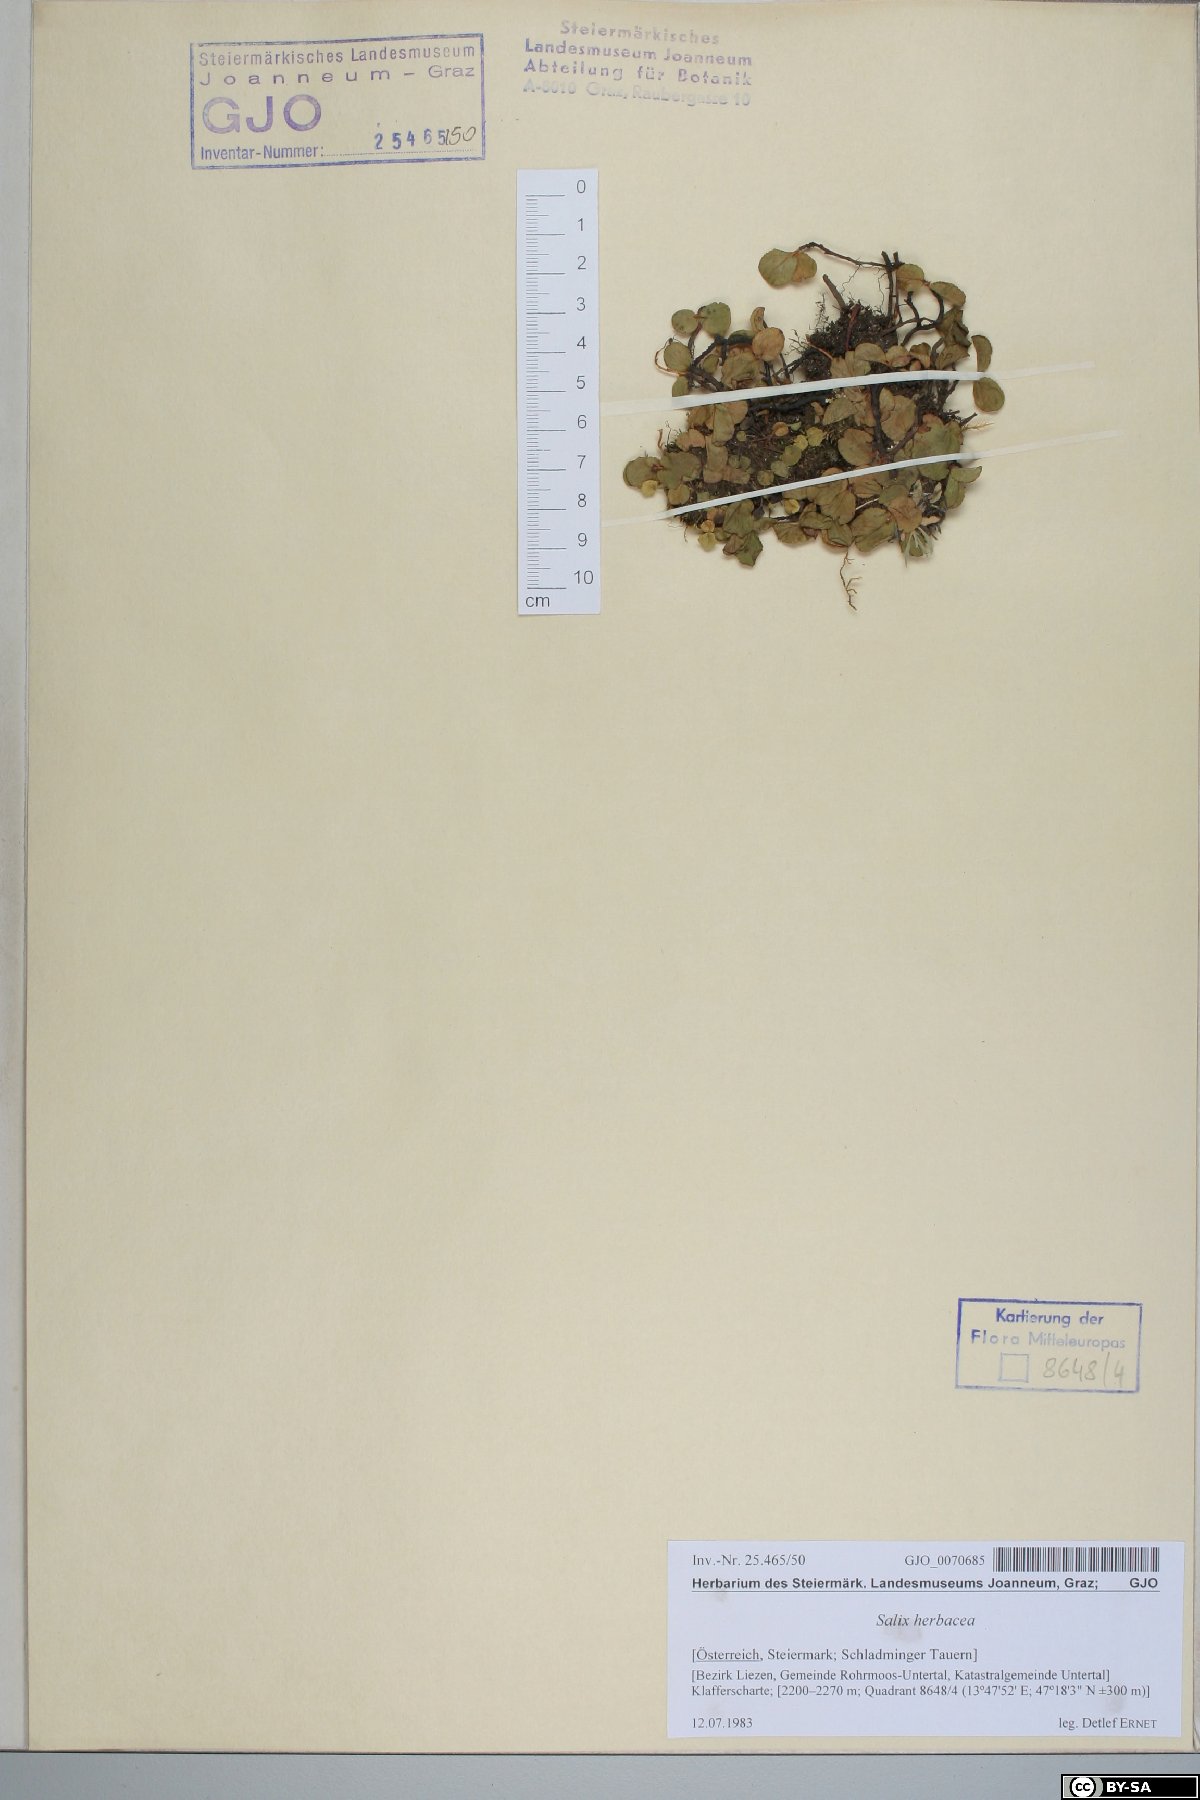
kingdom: Plantae
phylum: Tracheophyta
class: Magnoliopsida
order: Malpighiales
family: Salicaceae
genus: Salix
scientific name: Salix herbacea
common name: Dwarf willow
